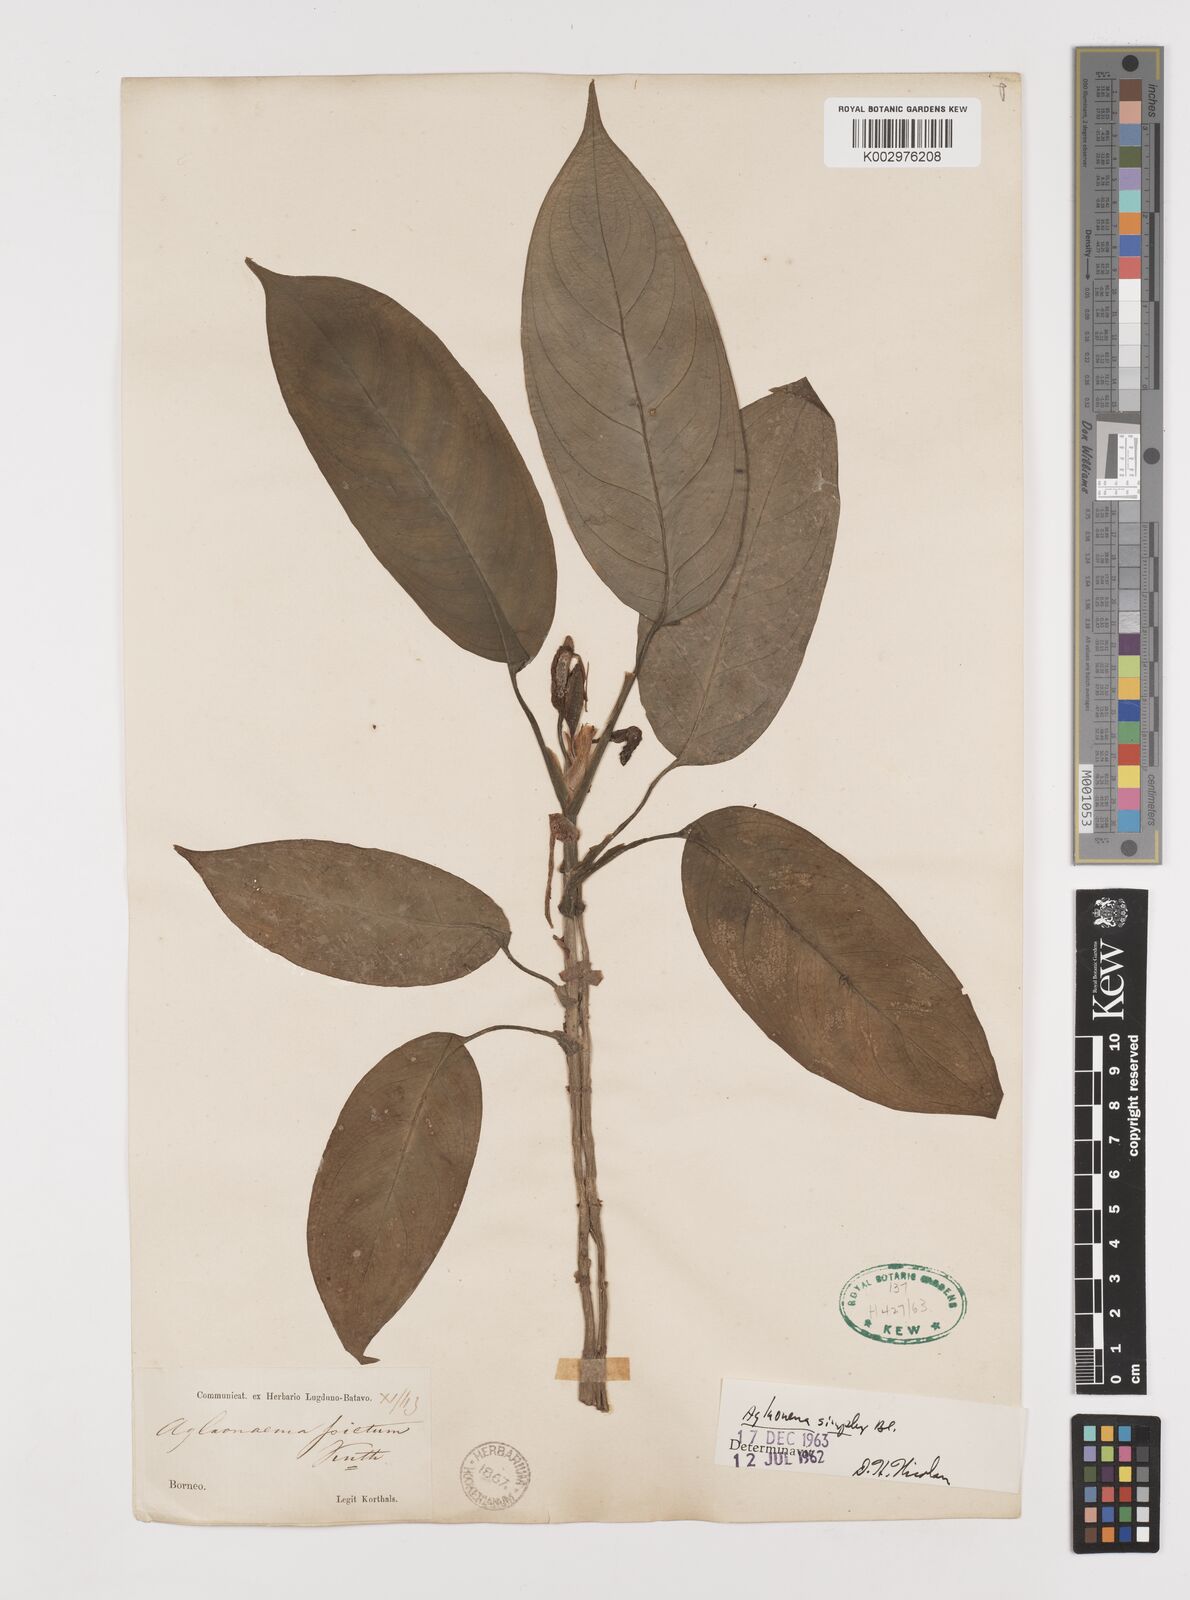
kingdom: Plantae
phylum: Tracheophyta
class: Liliopsida
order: Alismatales
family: Araceae
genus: Aglaonema
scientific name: Aglaonema simplex
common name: Malayan-sword
